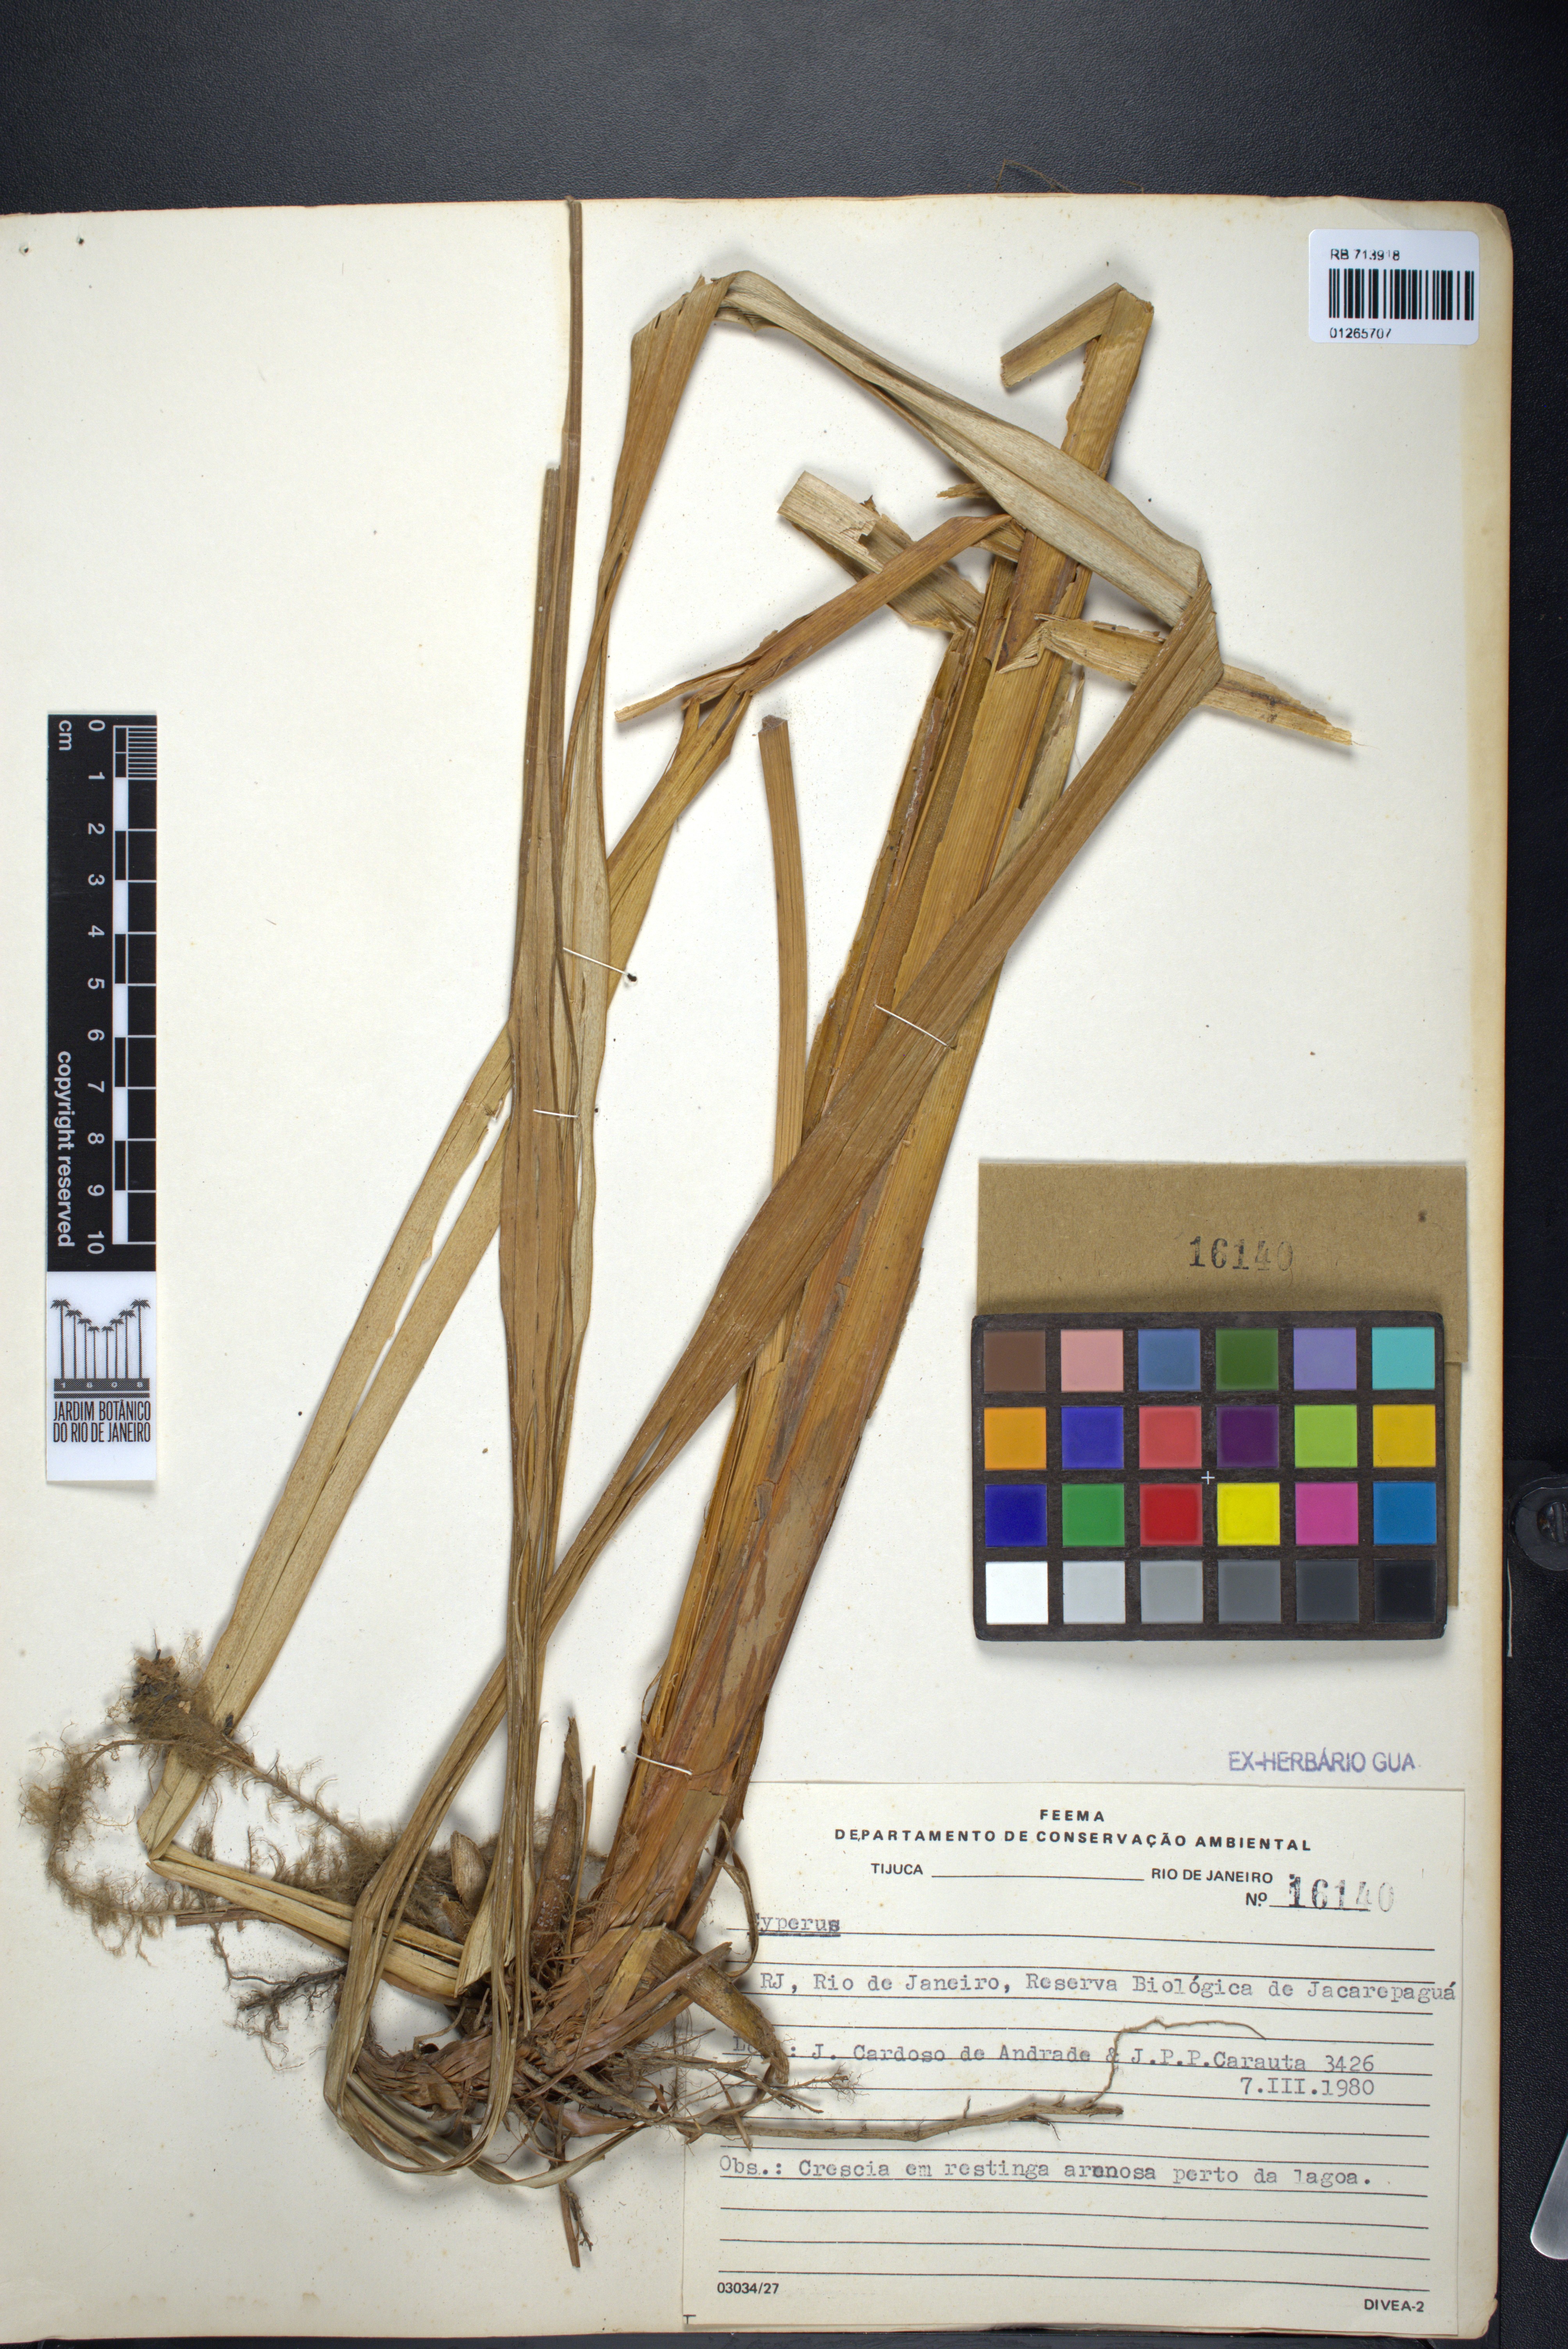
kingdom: Plantae
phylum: Tracheophyta
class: Liliopsida
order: Poales
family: Cyperaceae
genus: Cyperus
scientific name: Cyperus
